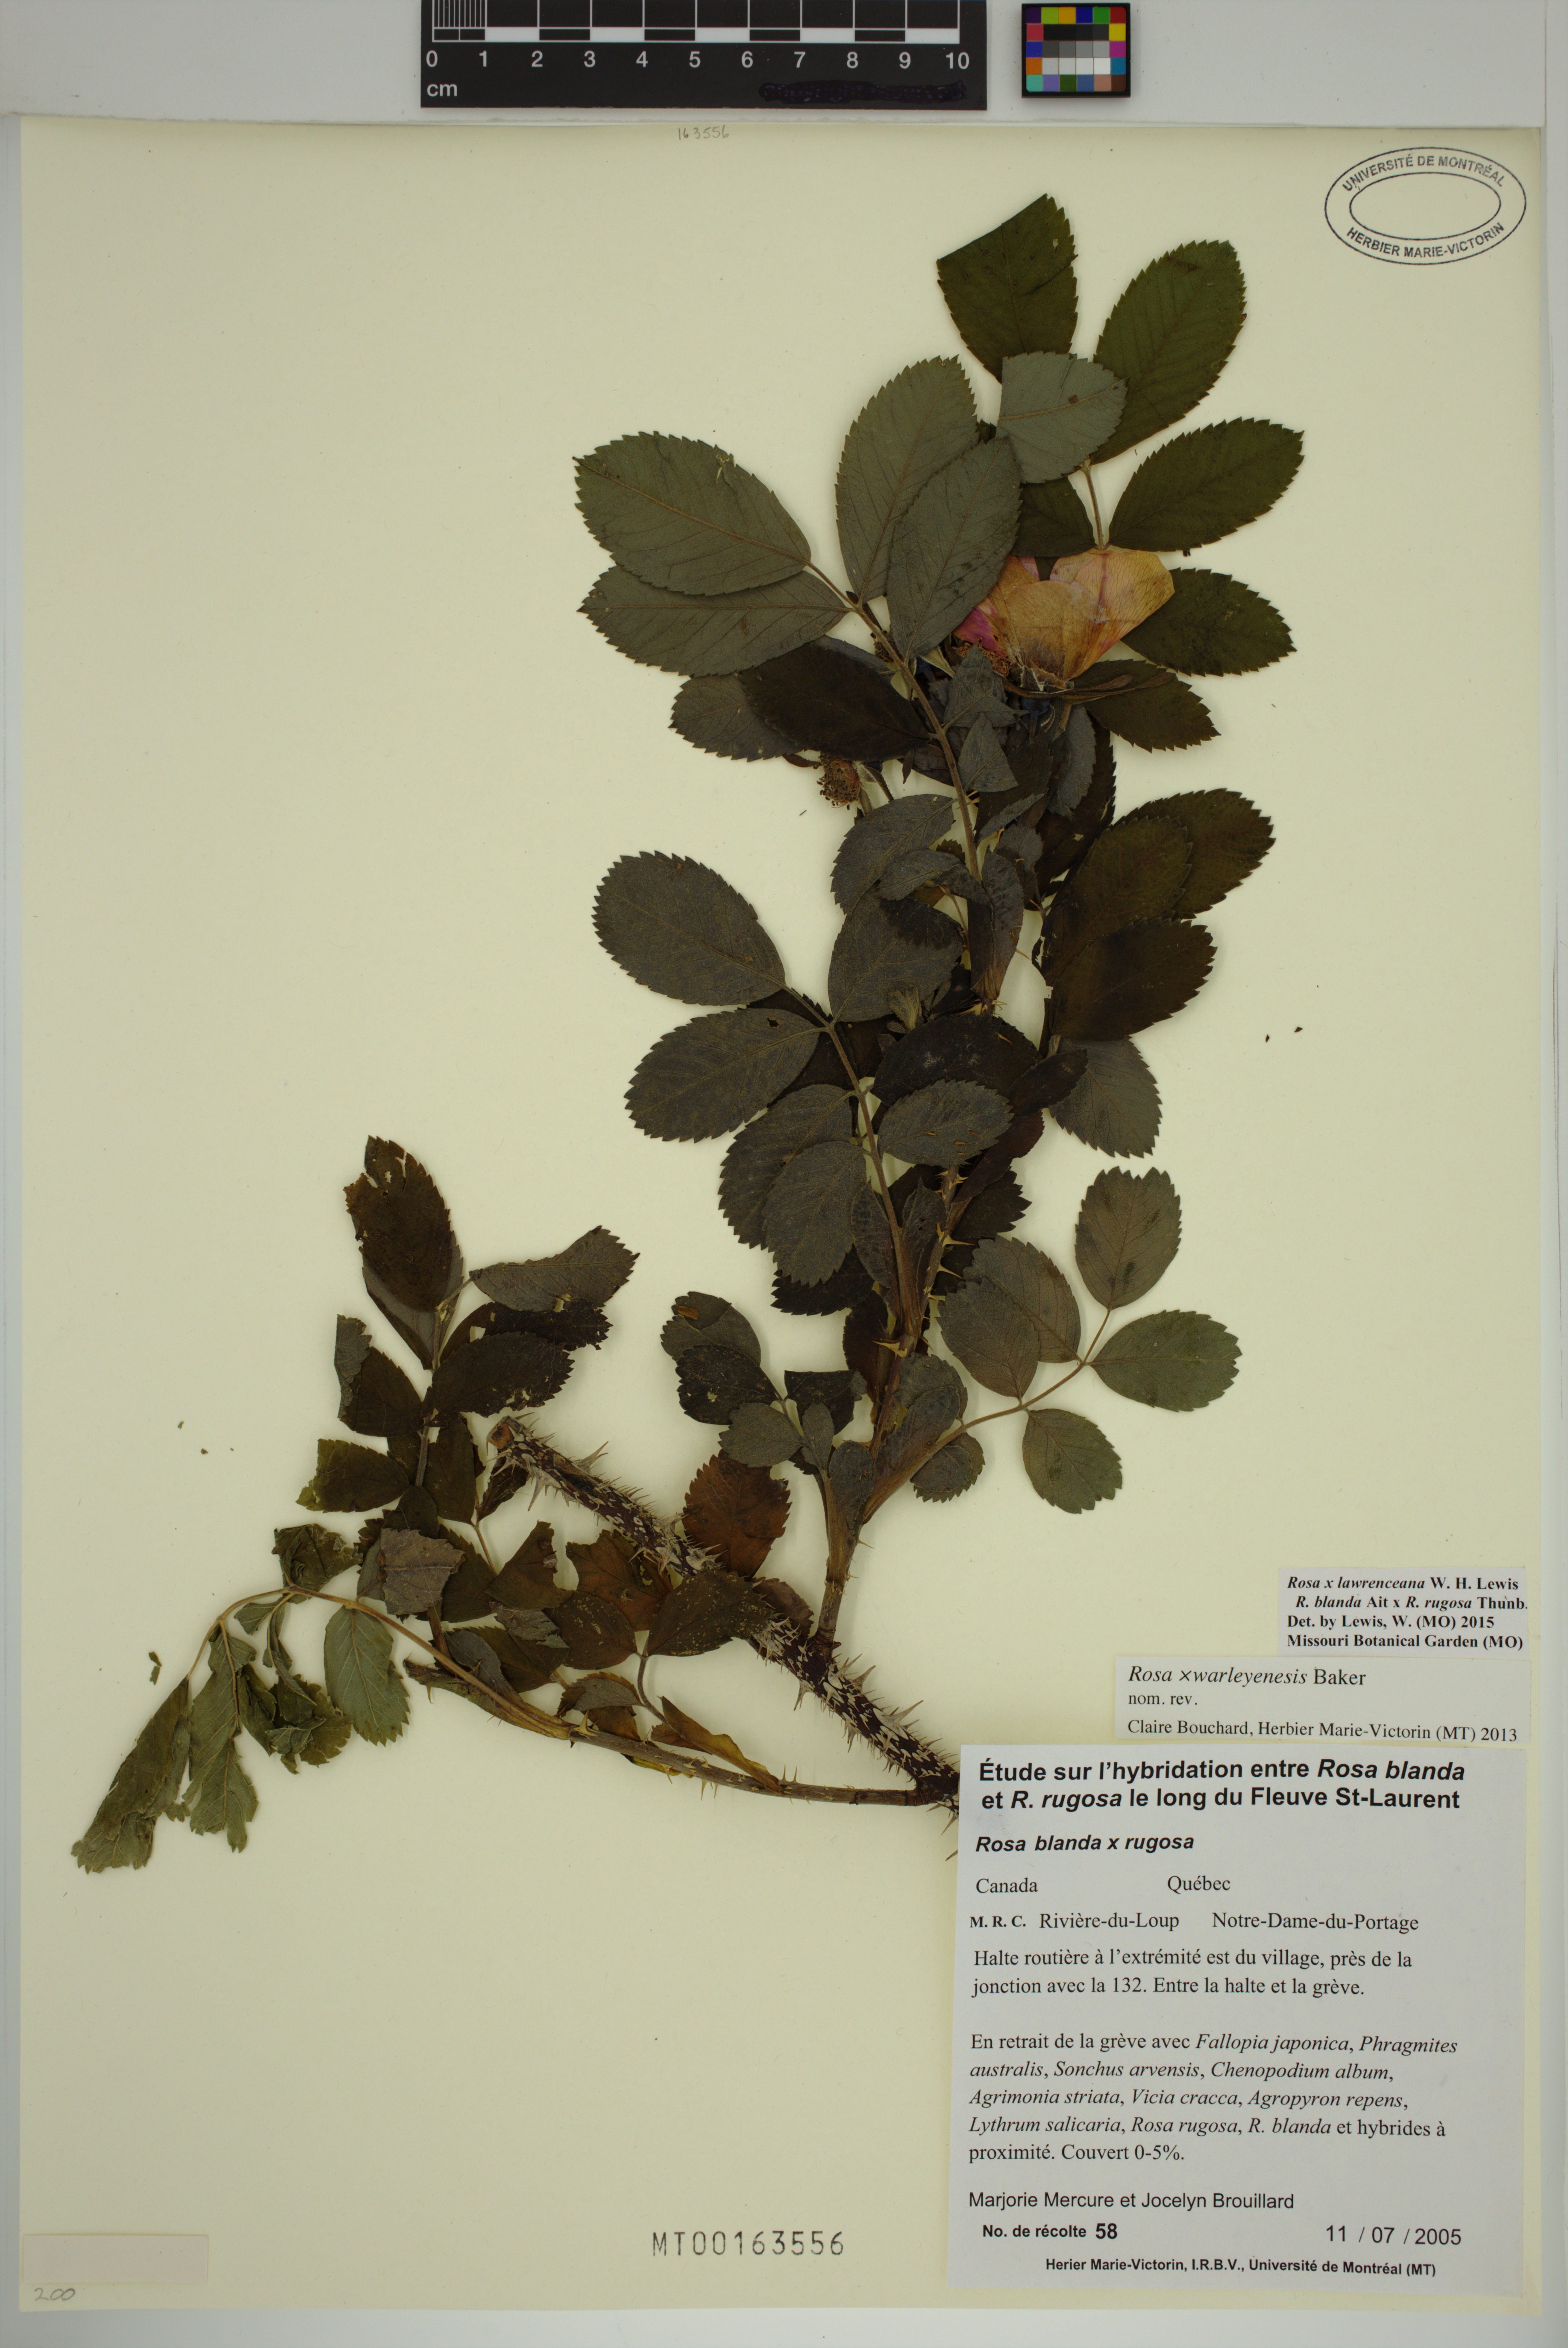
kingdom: Plantae
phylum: Tracheophyta
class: Magnoliopsida
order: Rosales
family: Rosaceae
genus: Rosa
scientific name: Rosa chinensis
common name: China rose
